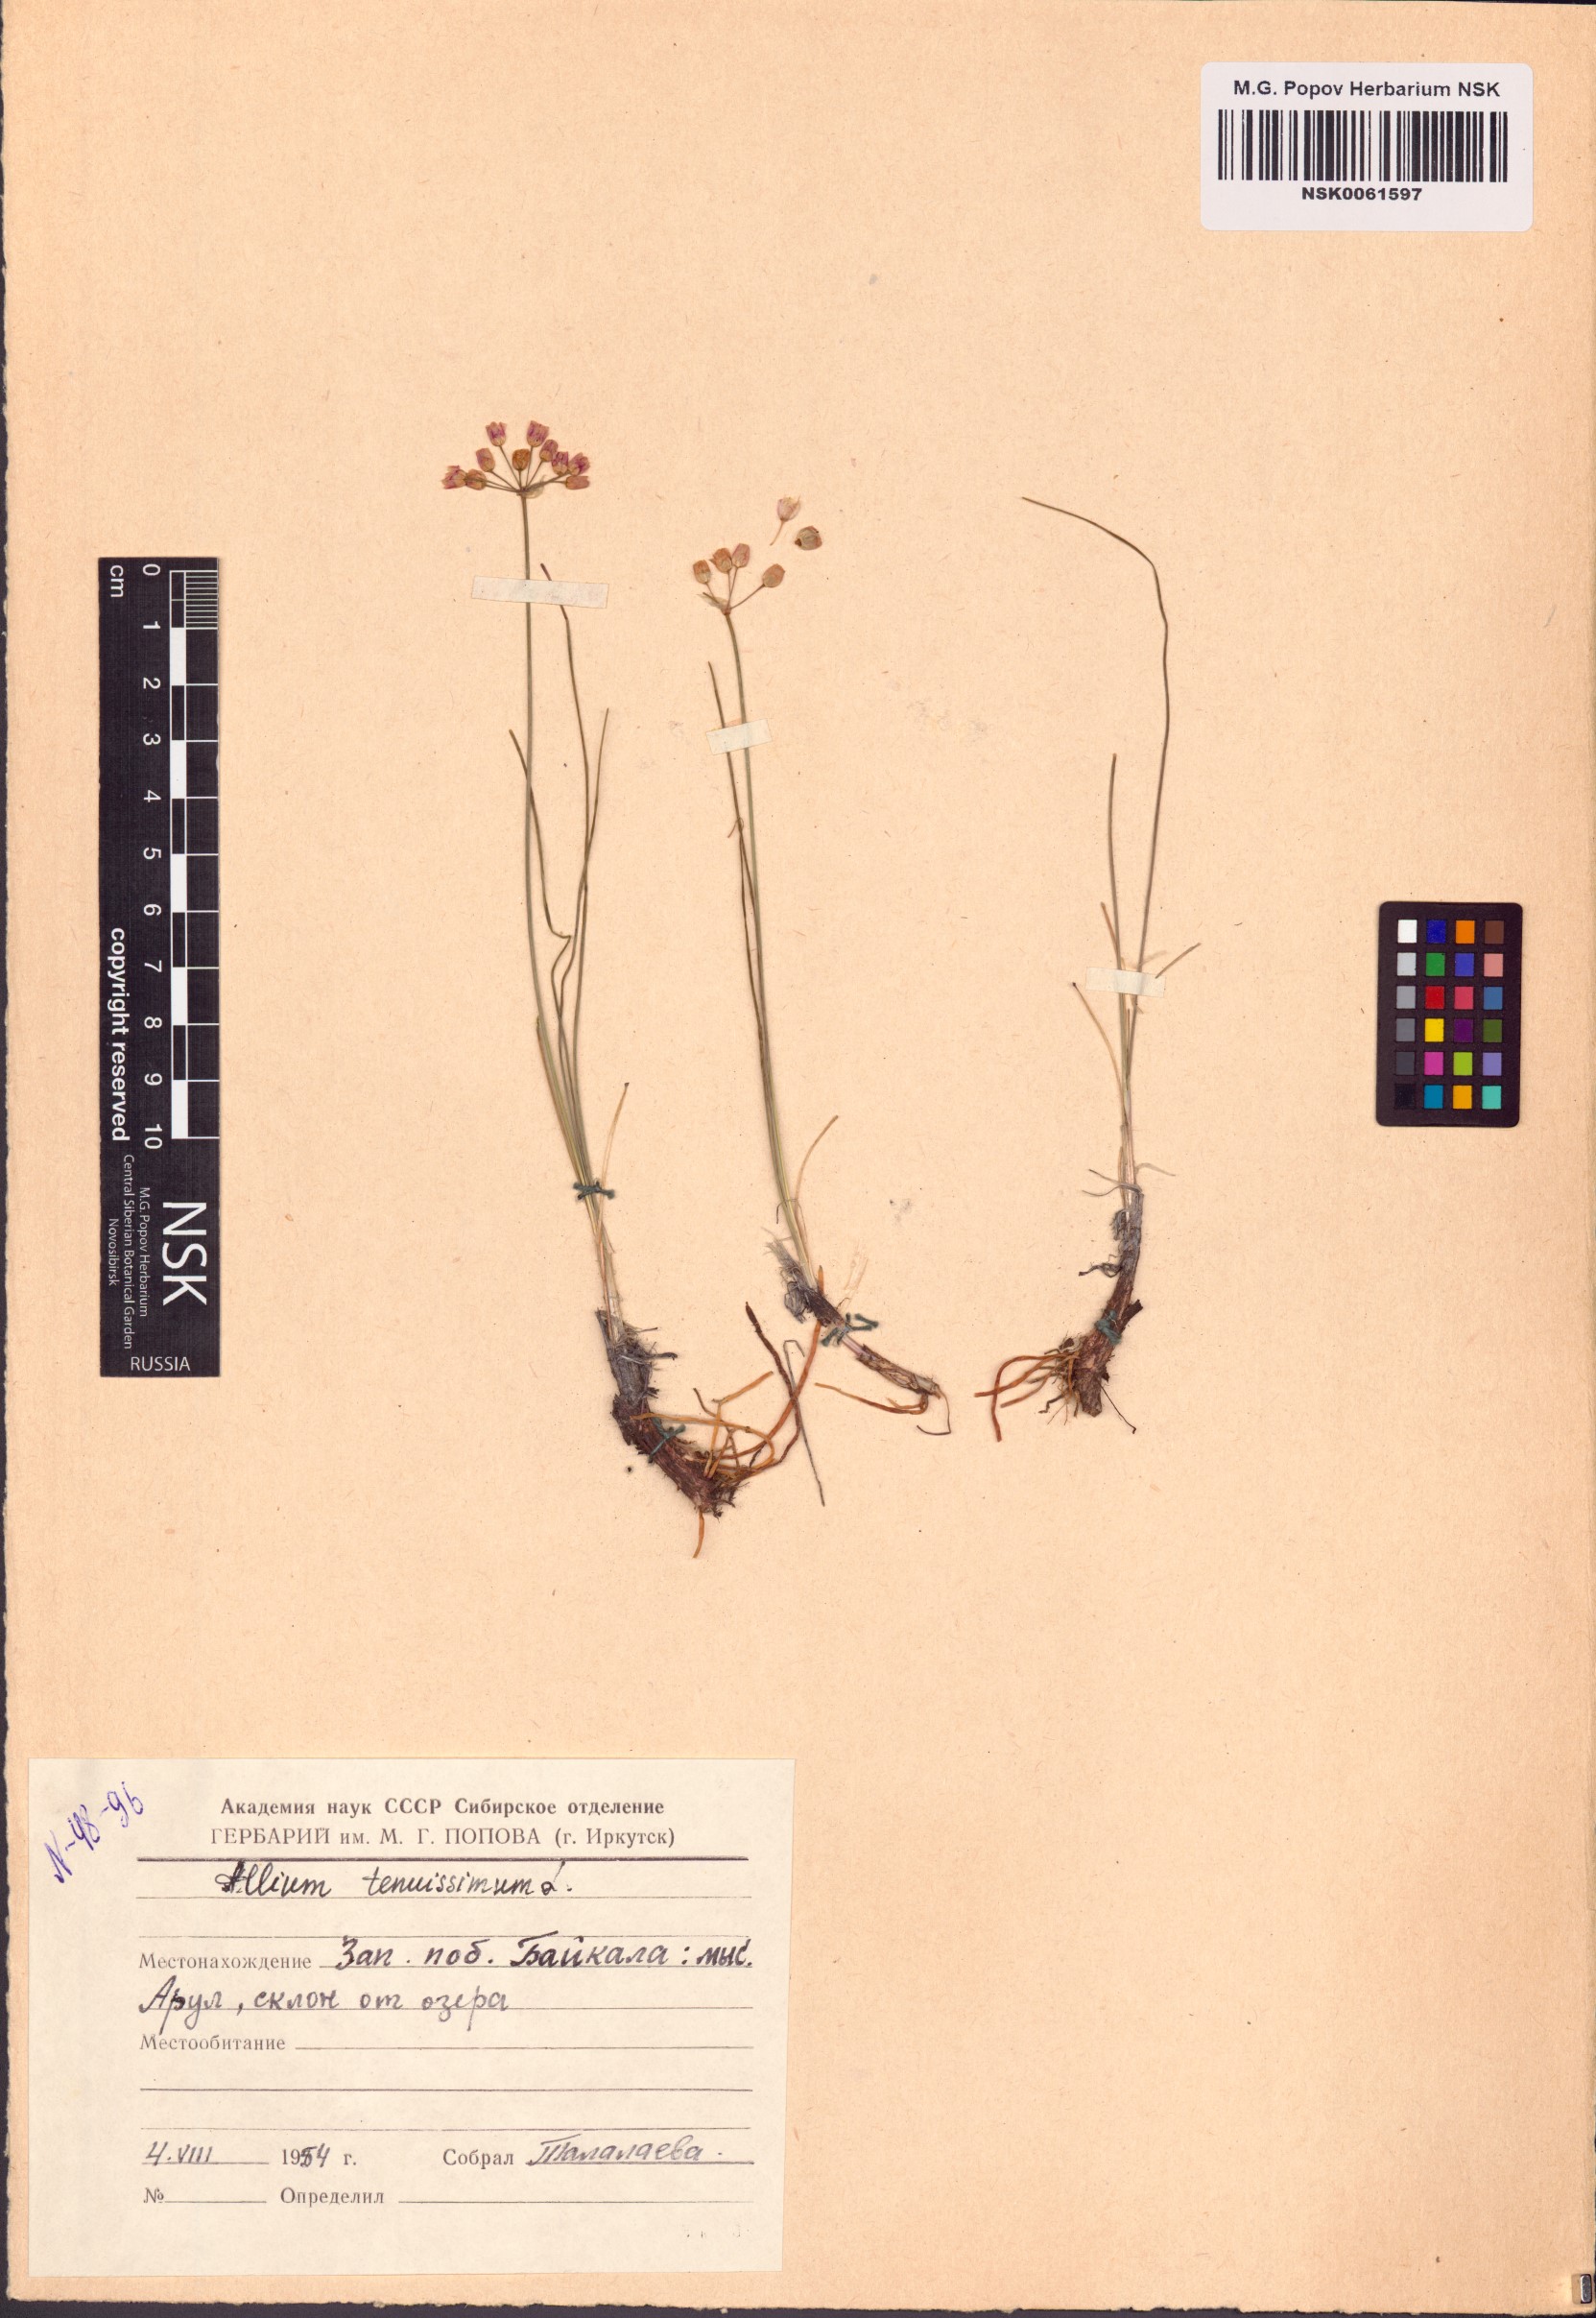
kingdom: Plantae
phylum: Tracheophyta
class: Liliopsida
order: Asparagales
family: Amaryllidaceae
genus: Allium
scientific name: Allium tenuissimum
